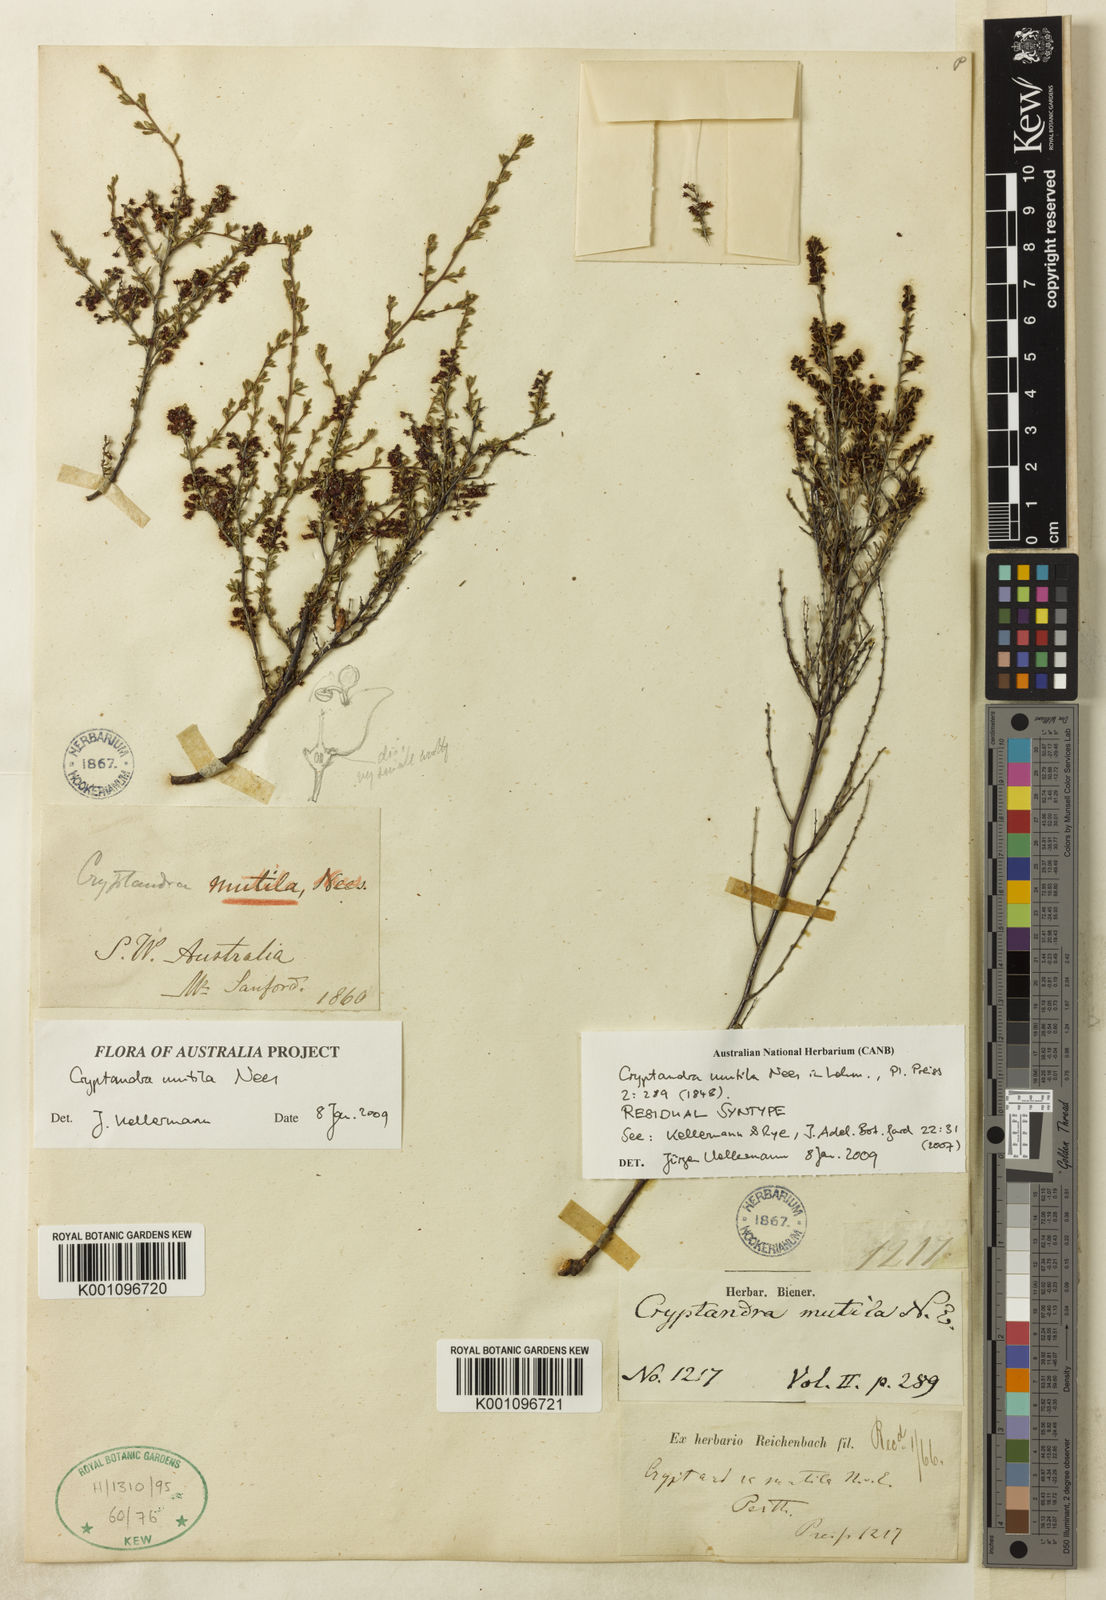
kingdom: Plantae
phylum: Tracheophyta
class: Magnoliopsida
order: Rosales
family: Rhamnaceae
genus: Cryptandra
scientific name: Cryptandra mutila
